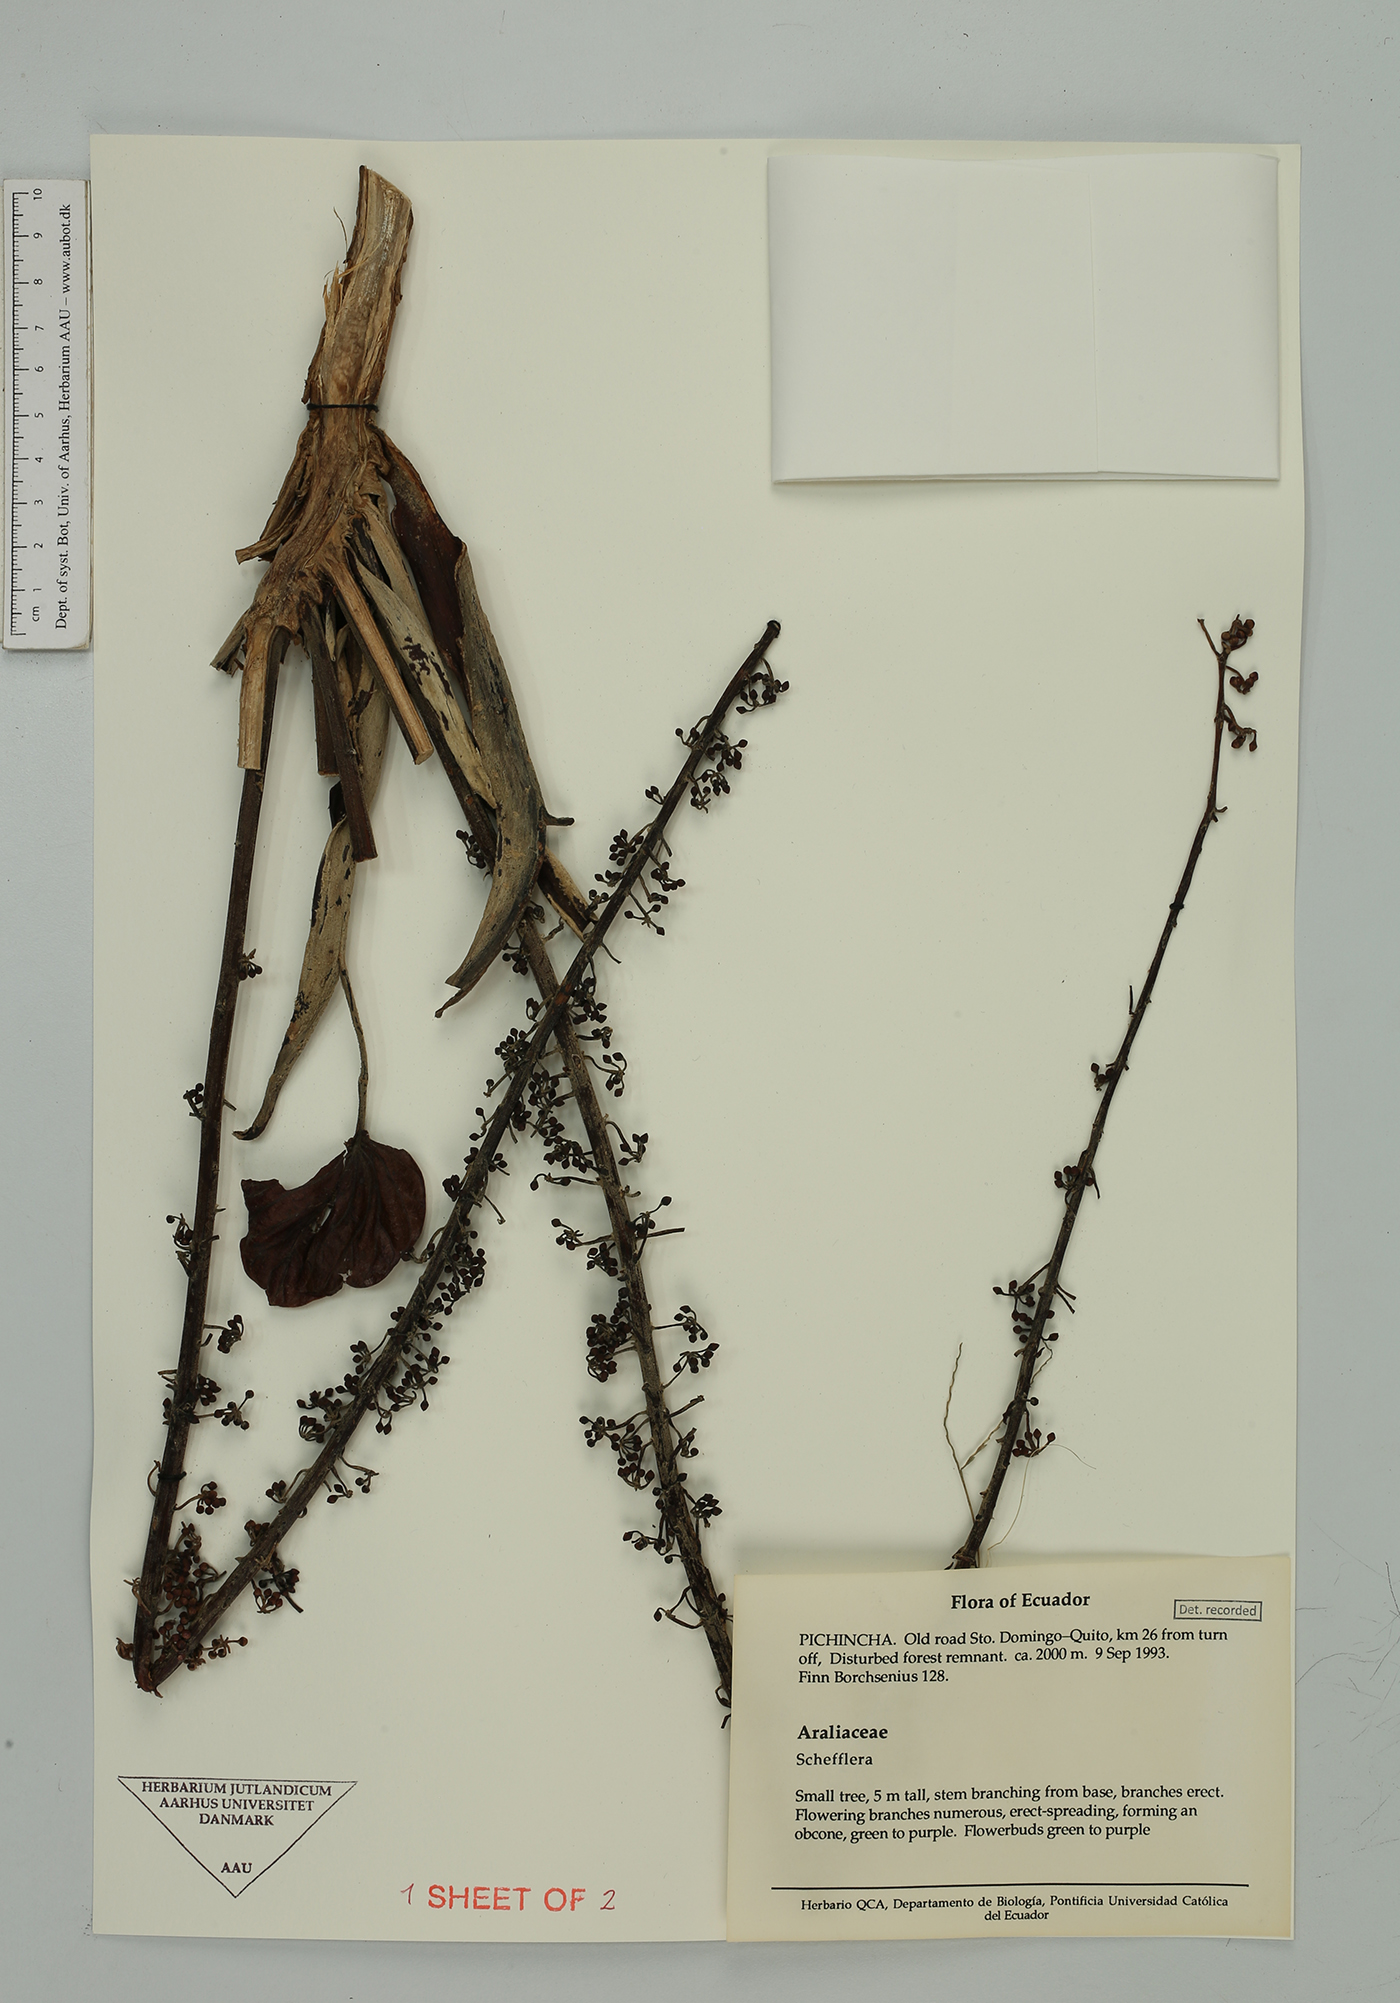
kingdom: Plantae
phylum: Tracheophyta
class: Magnoliopsida
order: Apiales
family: Araliaceae
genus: Sciodaphyllum
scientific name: Sciodaphyllum
